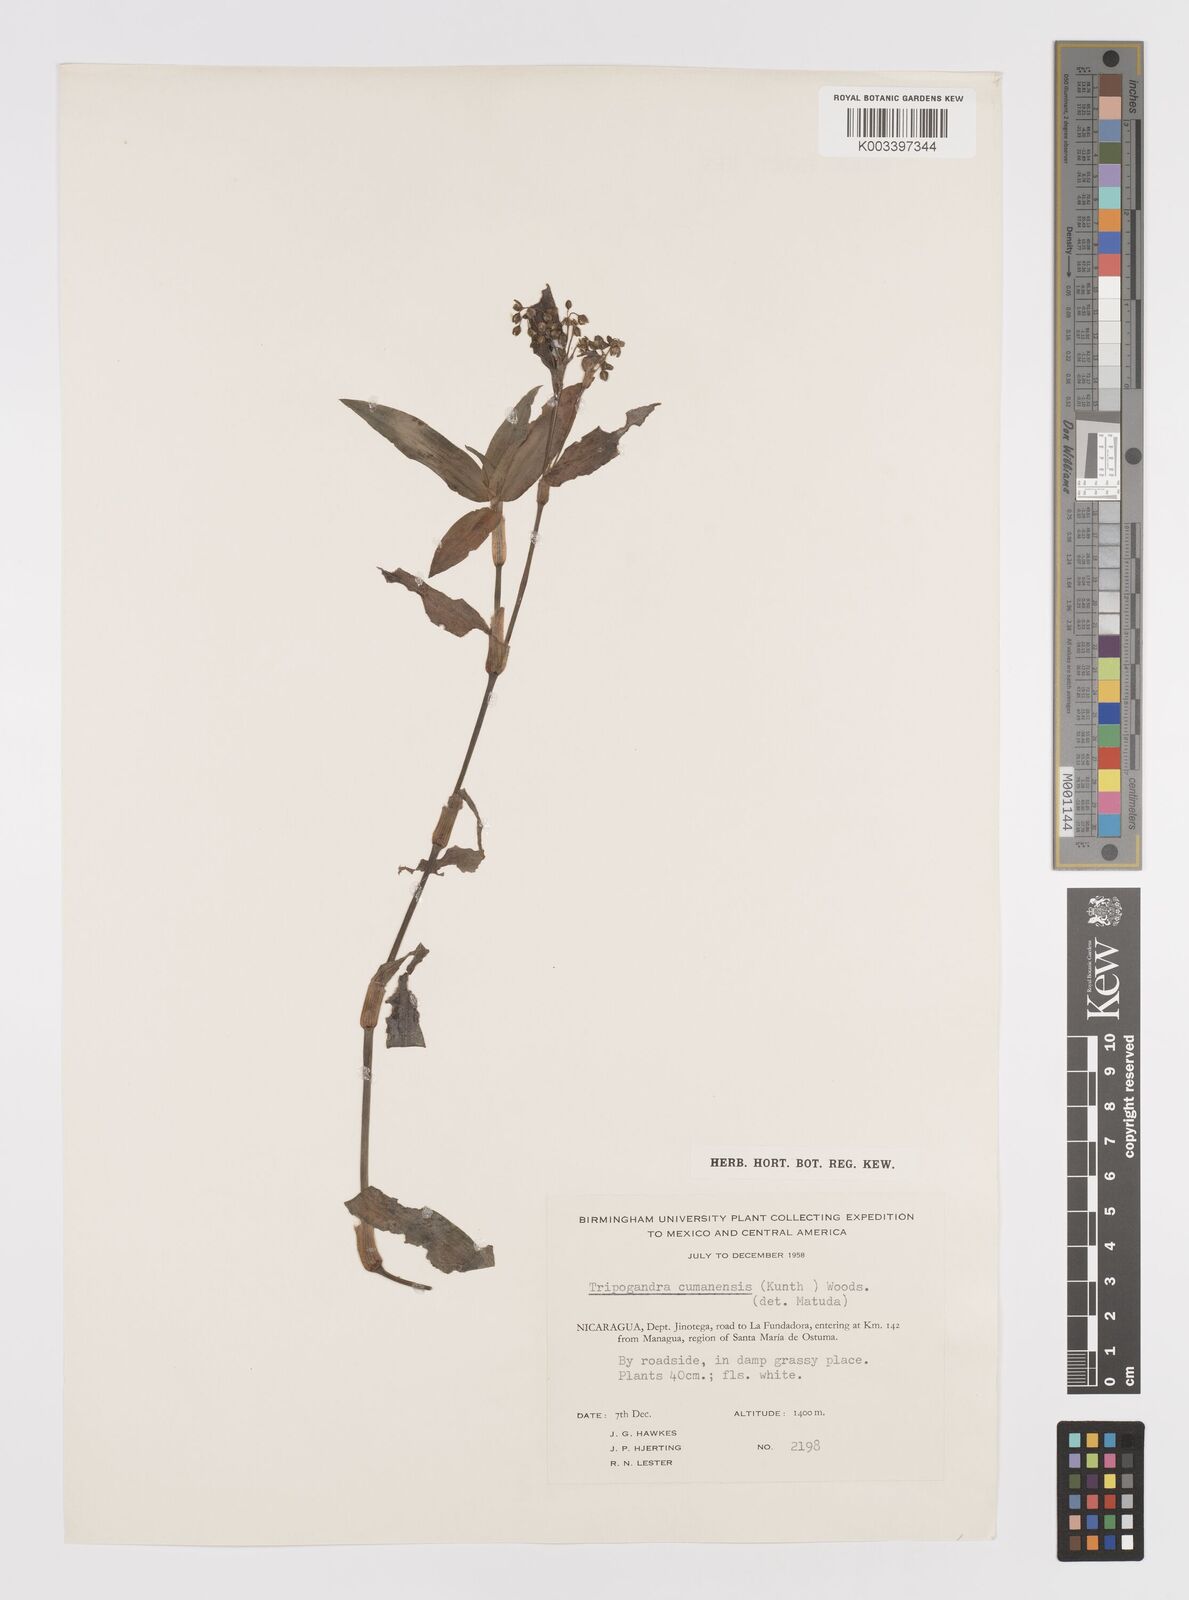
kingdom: Plantae
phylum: Tracheophyta
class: Liliopsida
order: Commelinales
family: Commelinaceae
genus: Callisia
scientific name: Callisia serrulata
